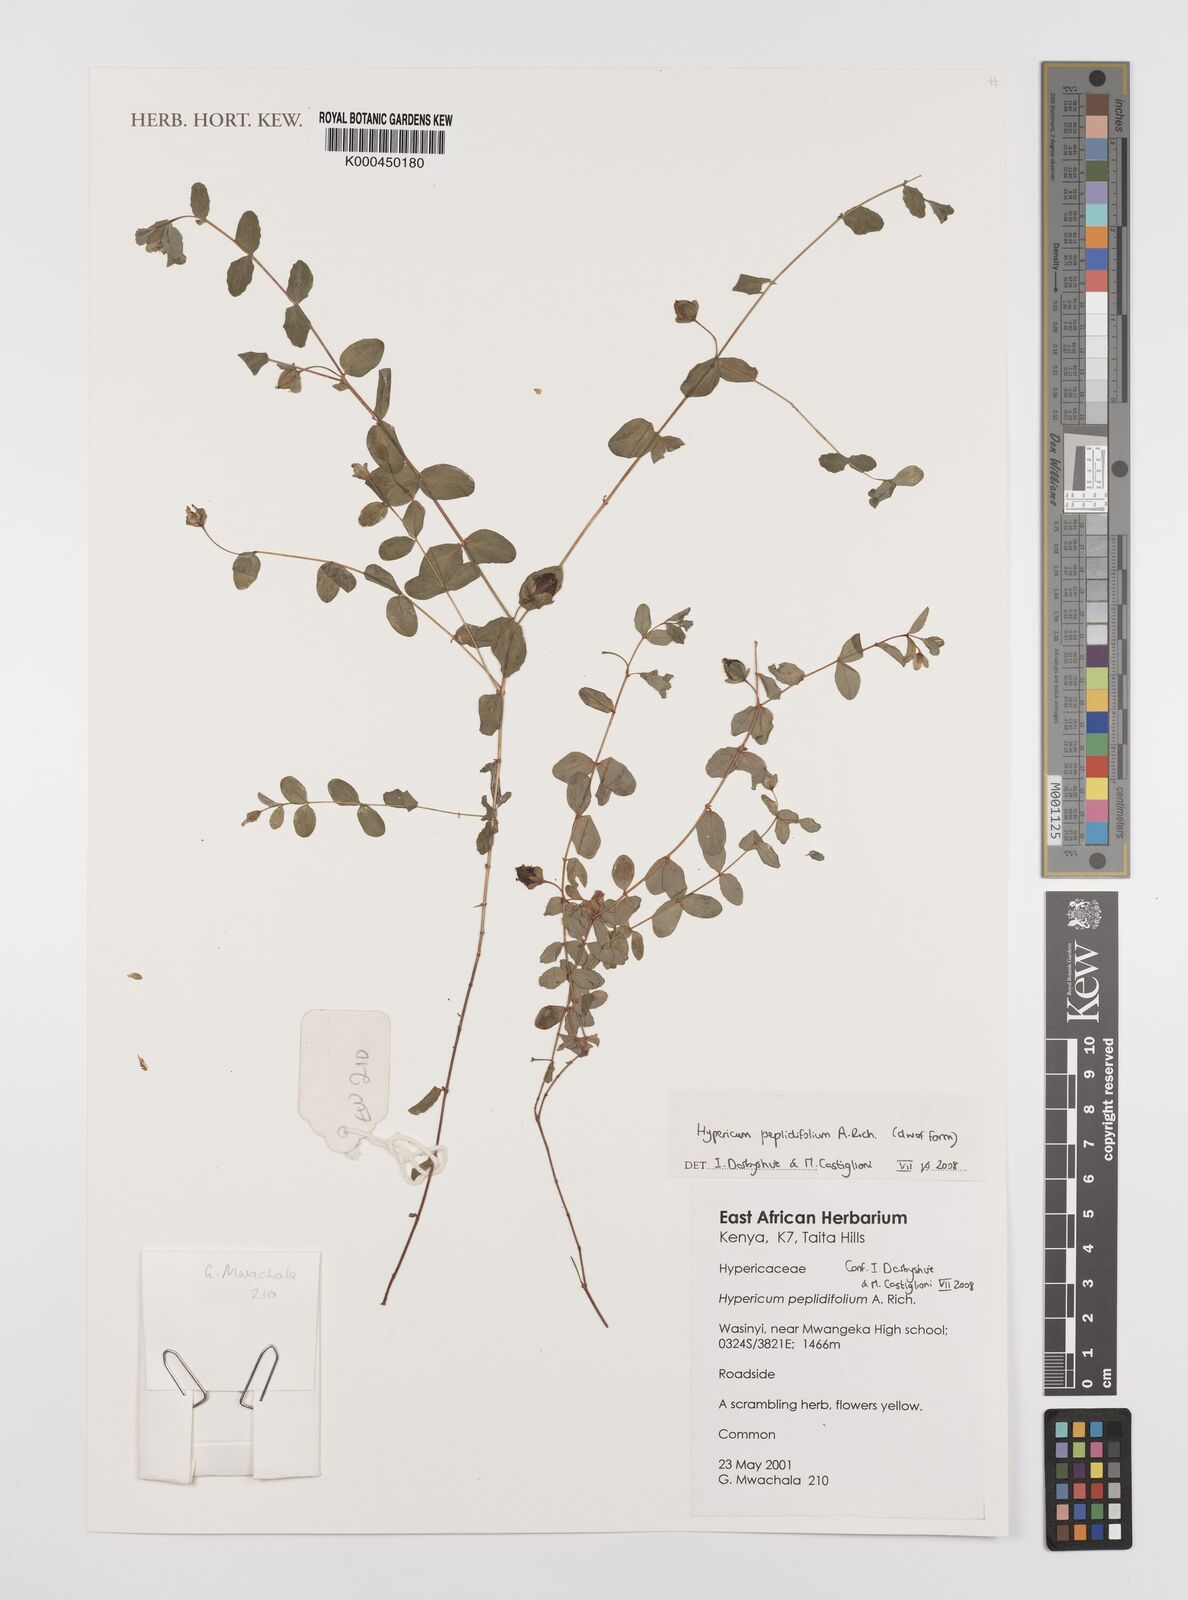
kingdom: Plantae
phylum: Tracheophyta
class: Magnoliopsida
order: Malpighiales
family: Hypericaceae
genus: Hypericum
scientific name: Hypericum peplidifolium
